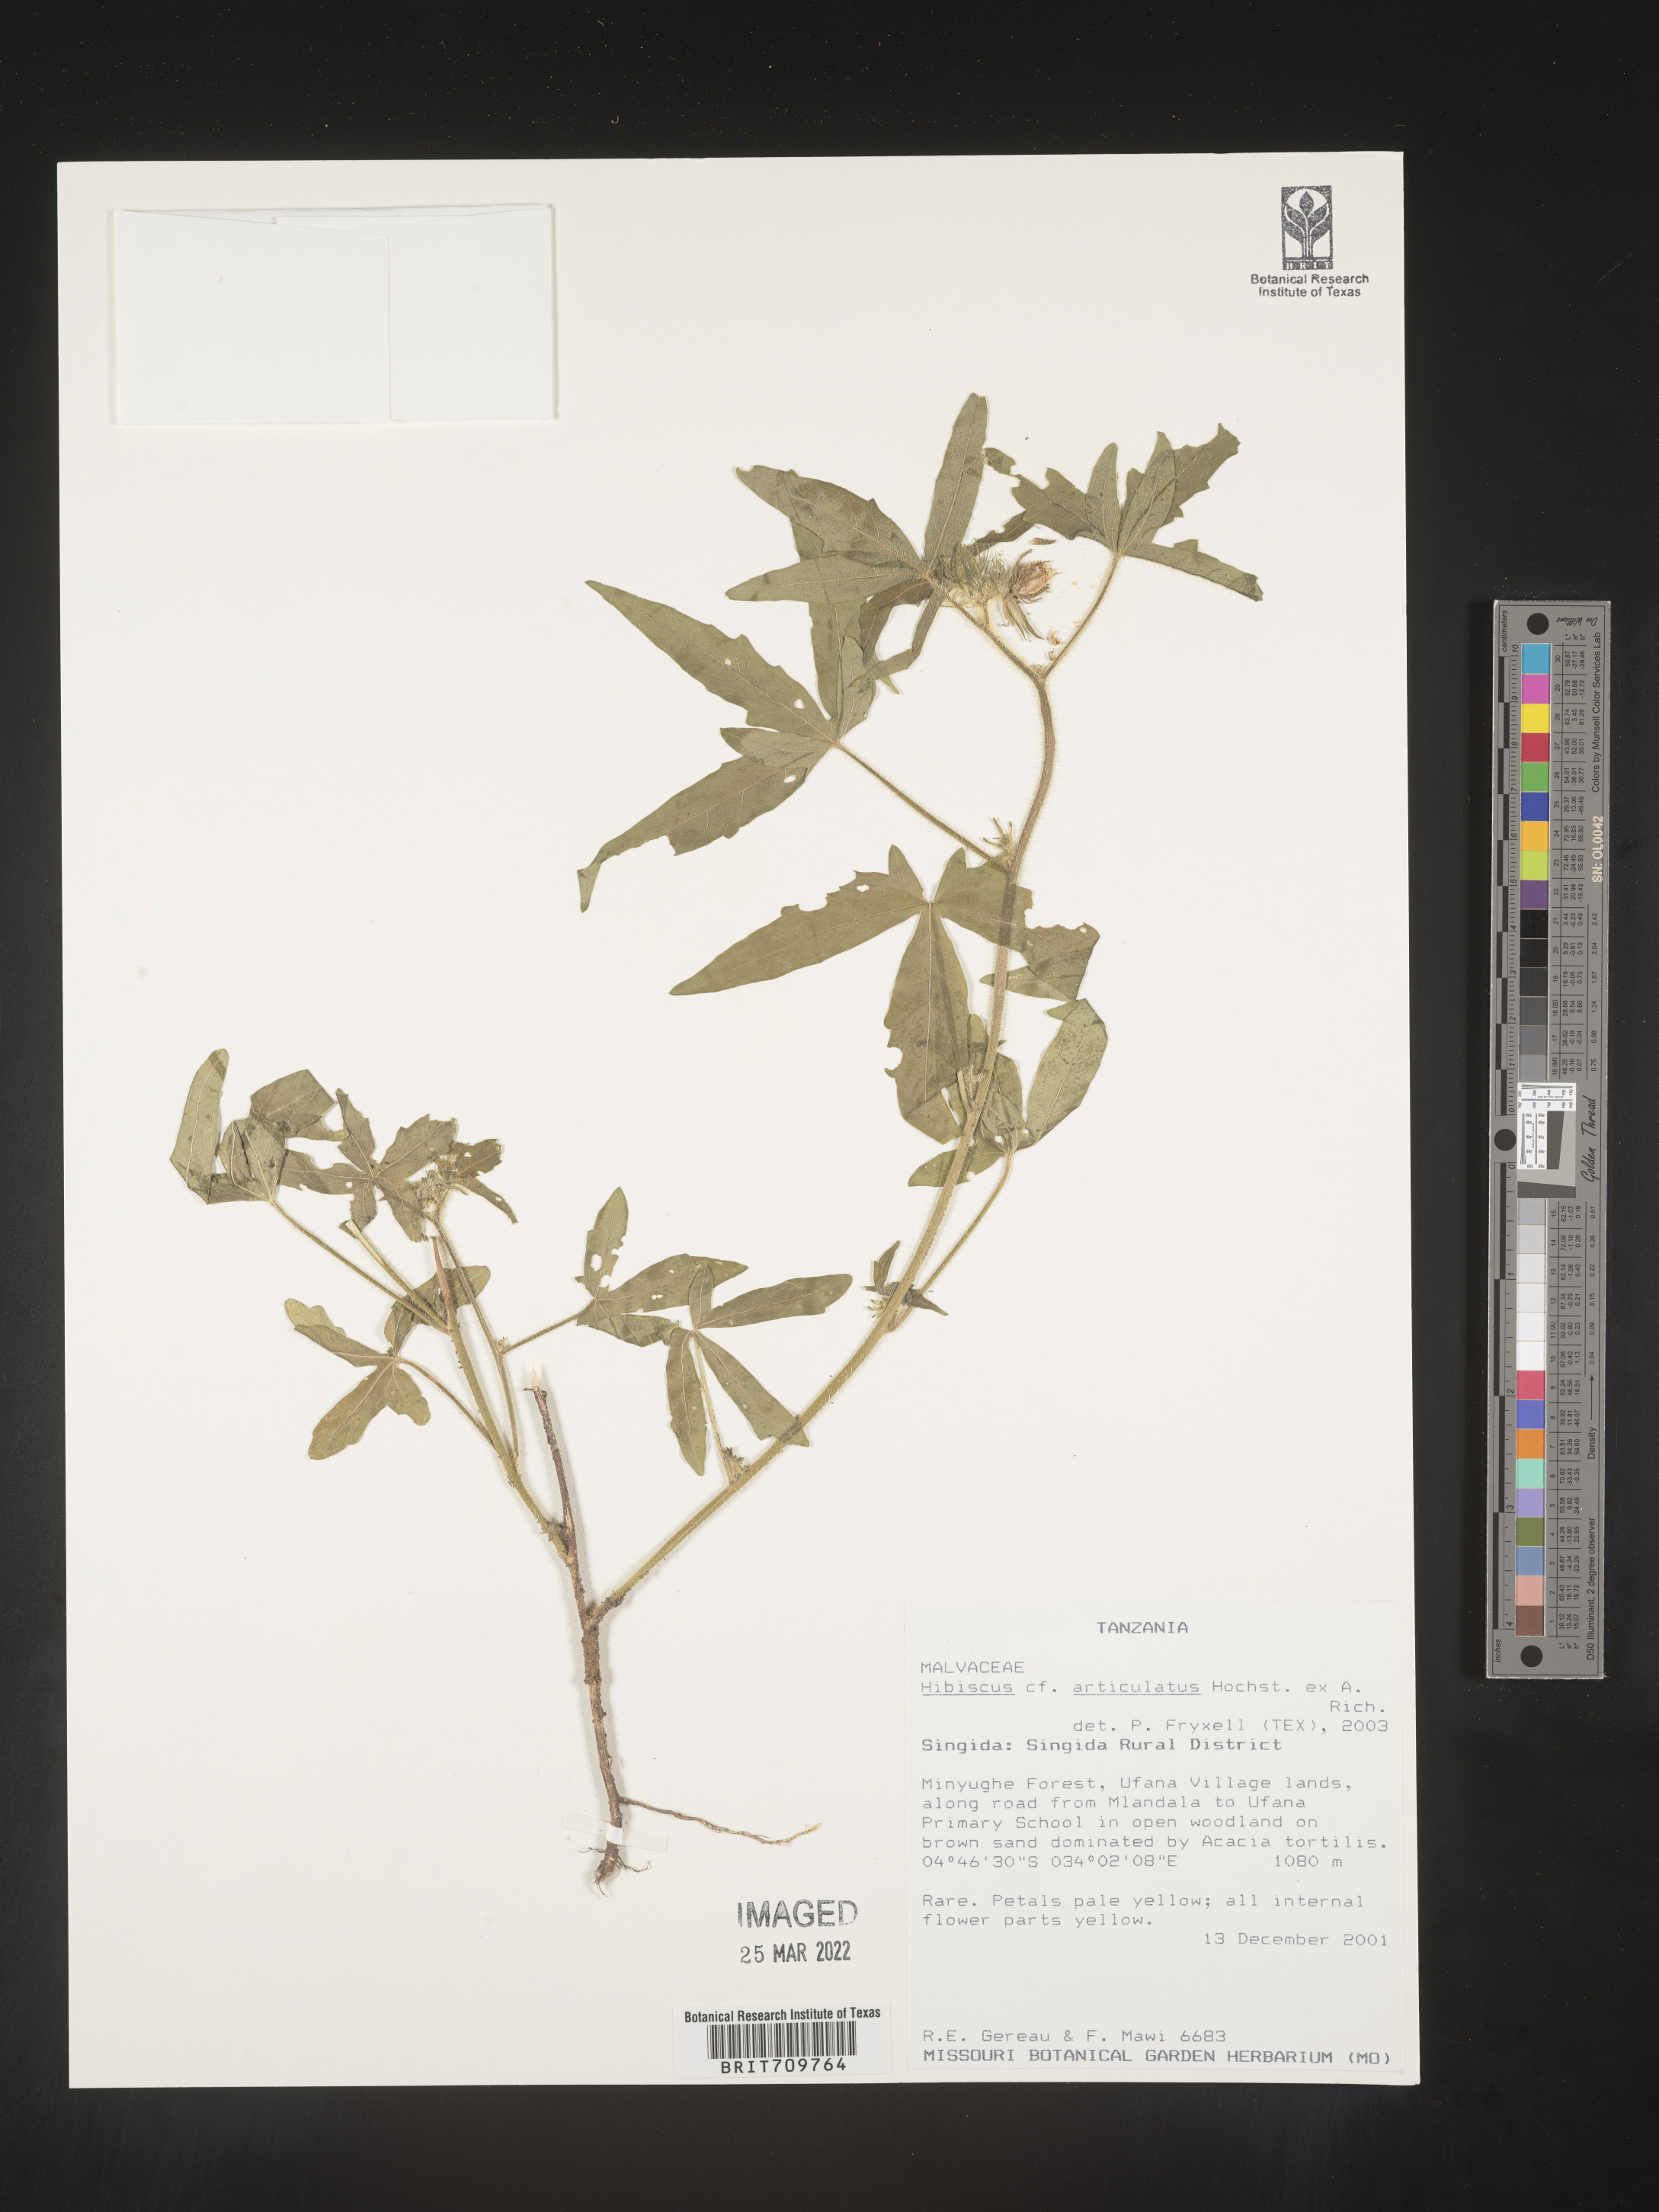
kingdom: Plantae
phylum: Tracheophyta
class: Magnoliopsida
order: Malvales
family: Malvaceae
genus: Hibiscus
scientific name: Hibiscus
